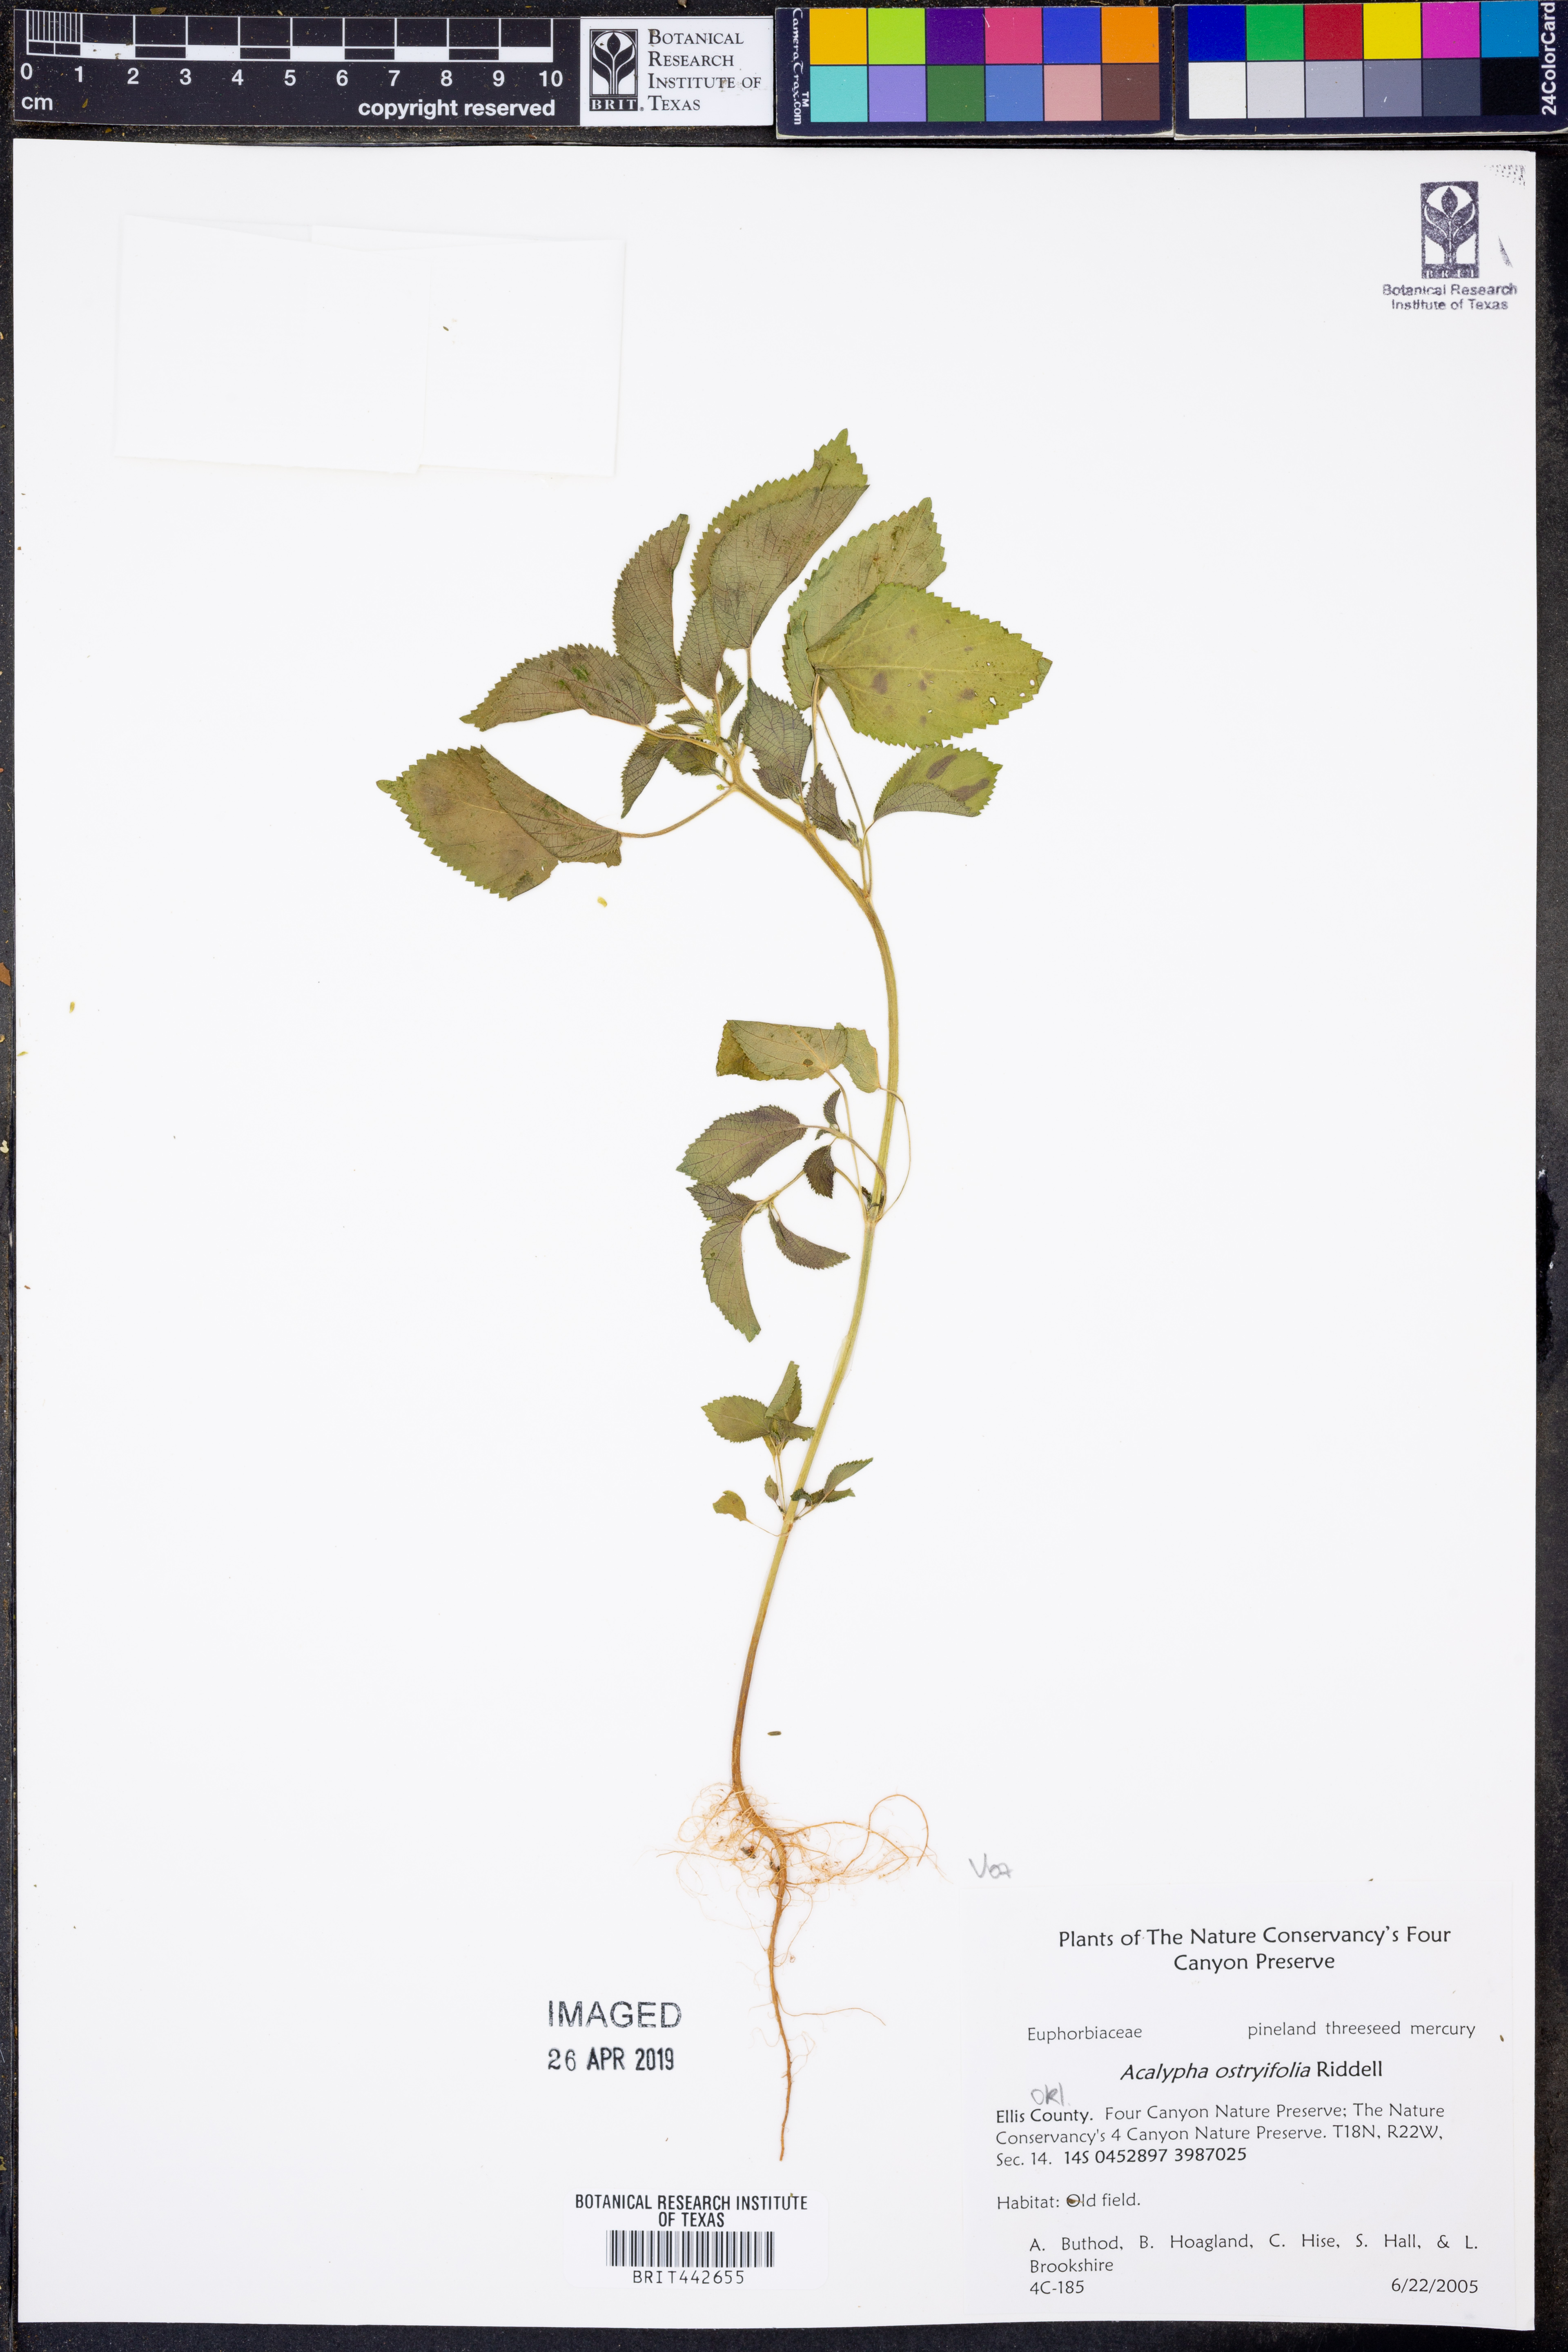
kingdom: Plantae
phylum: Tracheophyta
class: Magnoliopsida
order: Malpighiales
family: Euphorbiaceae
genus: Acalypha
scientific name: Acalypha persimilis
